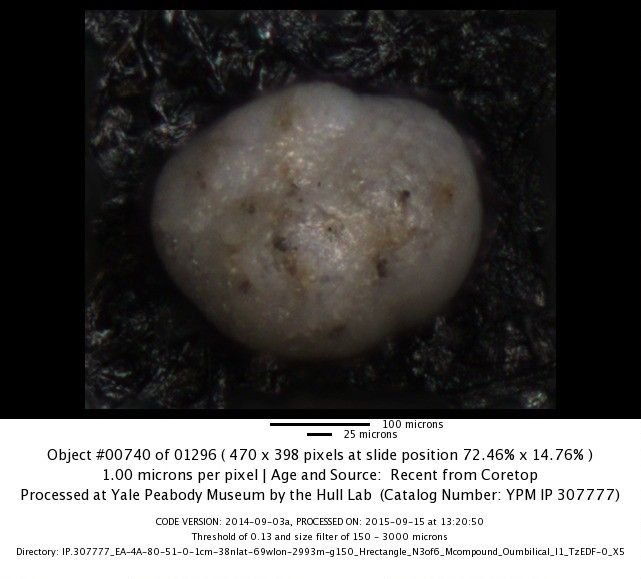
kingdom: Chromista
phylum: Foraminifera
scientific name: Foraminifera
